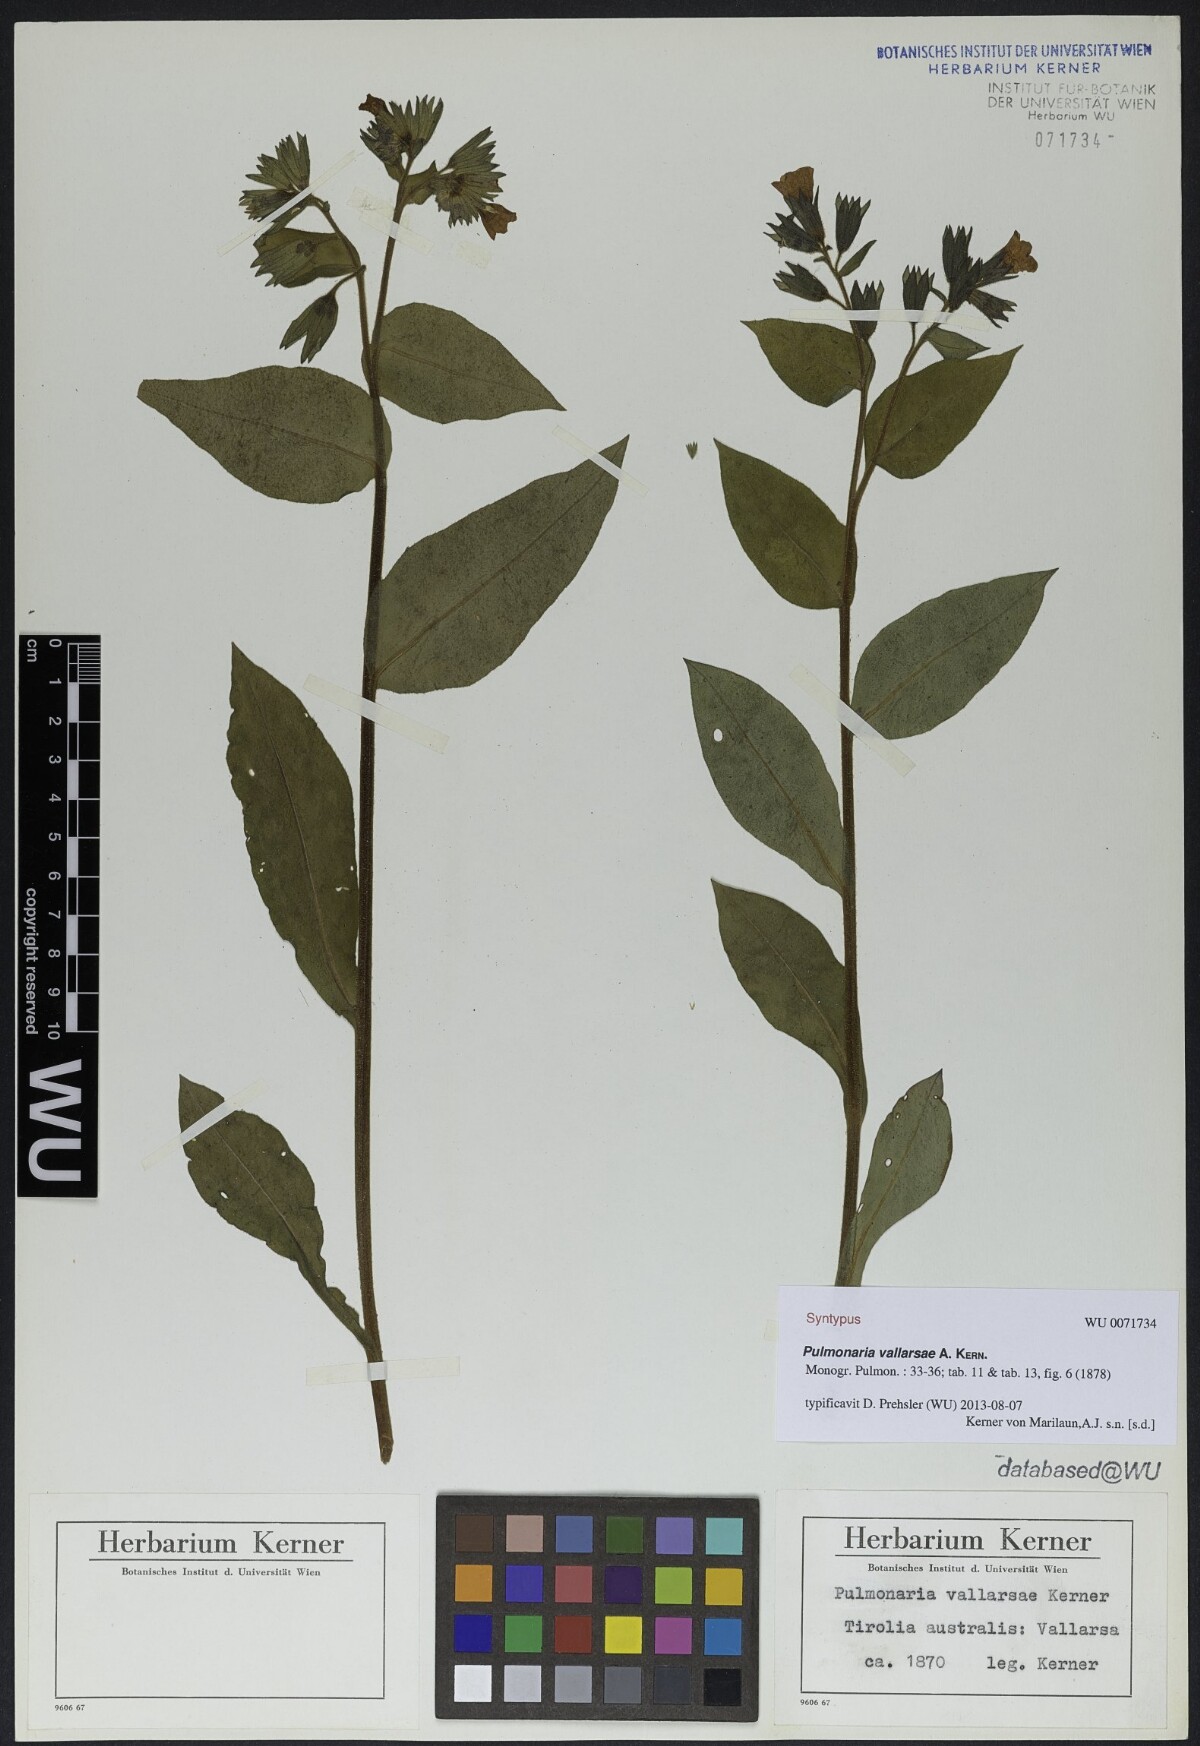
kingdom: Plantae
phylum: Tracheophyta
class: Magnoliopsida
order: Boraginales
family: Boraginaceae
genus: Pulmonaria
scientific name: Pulmonaria hirta
